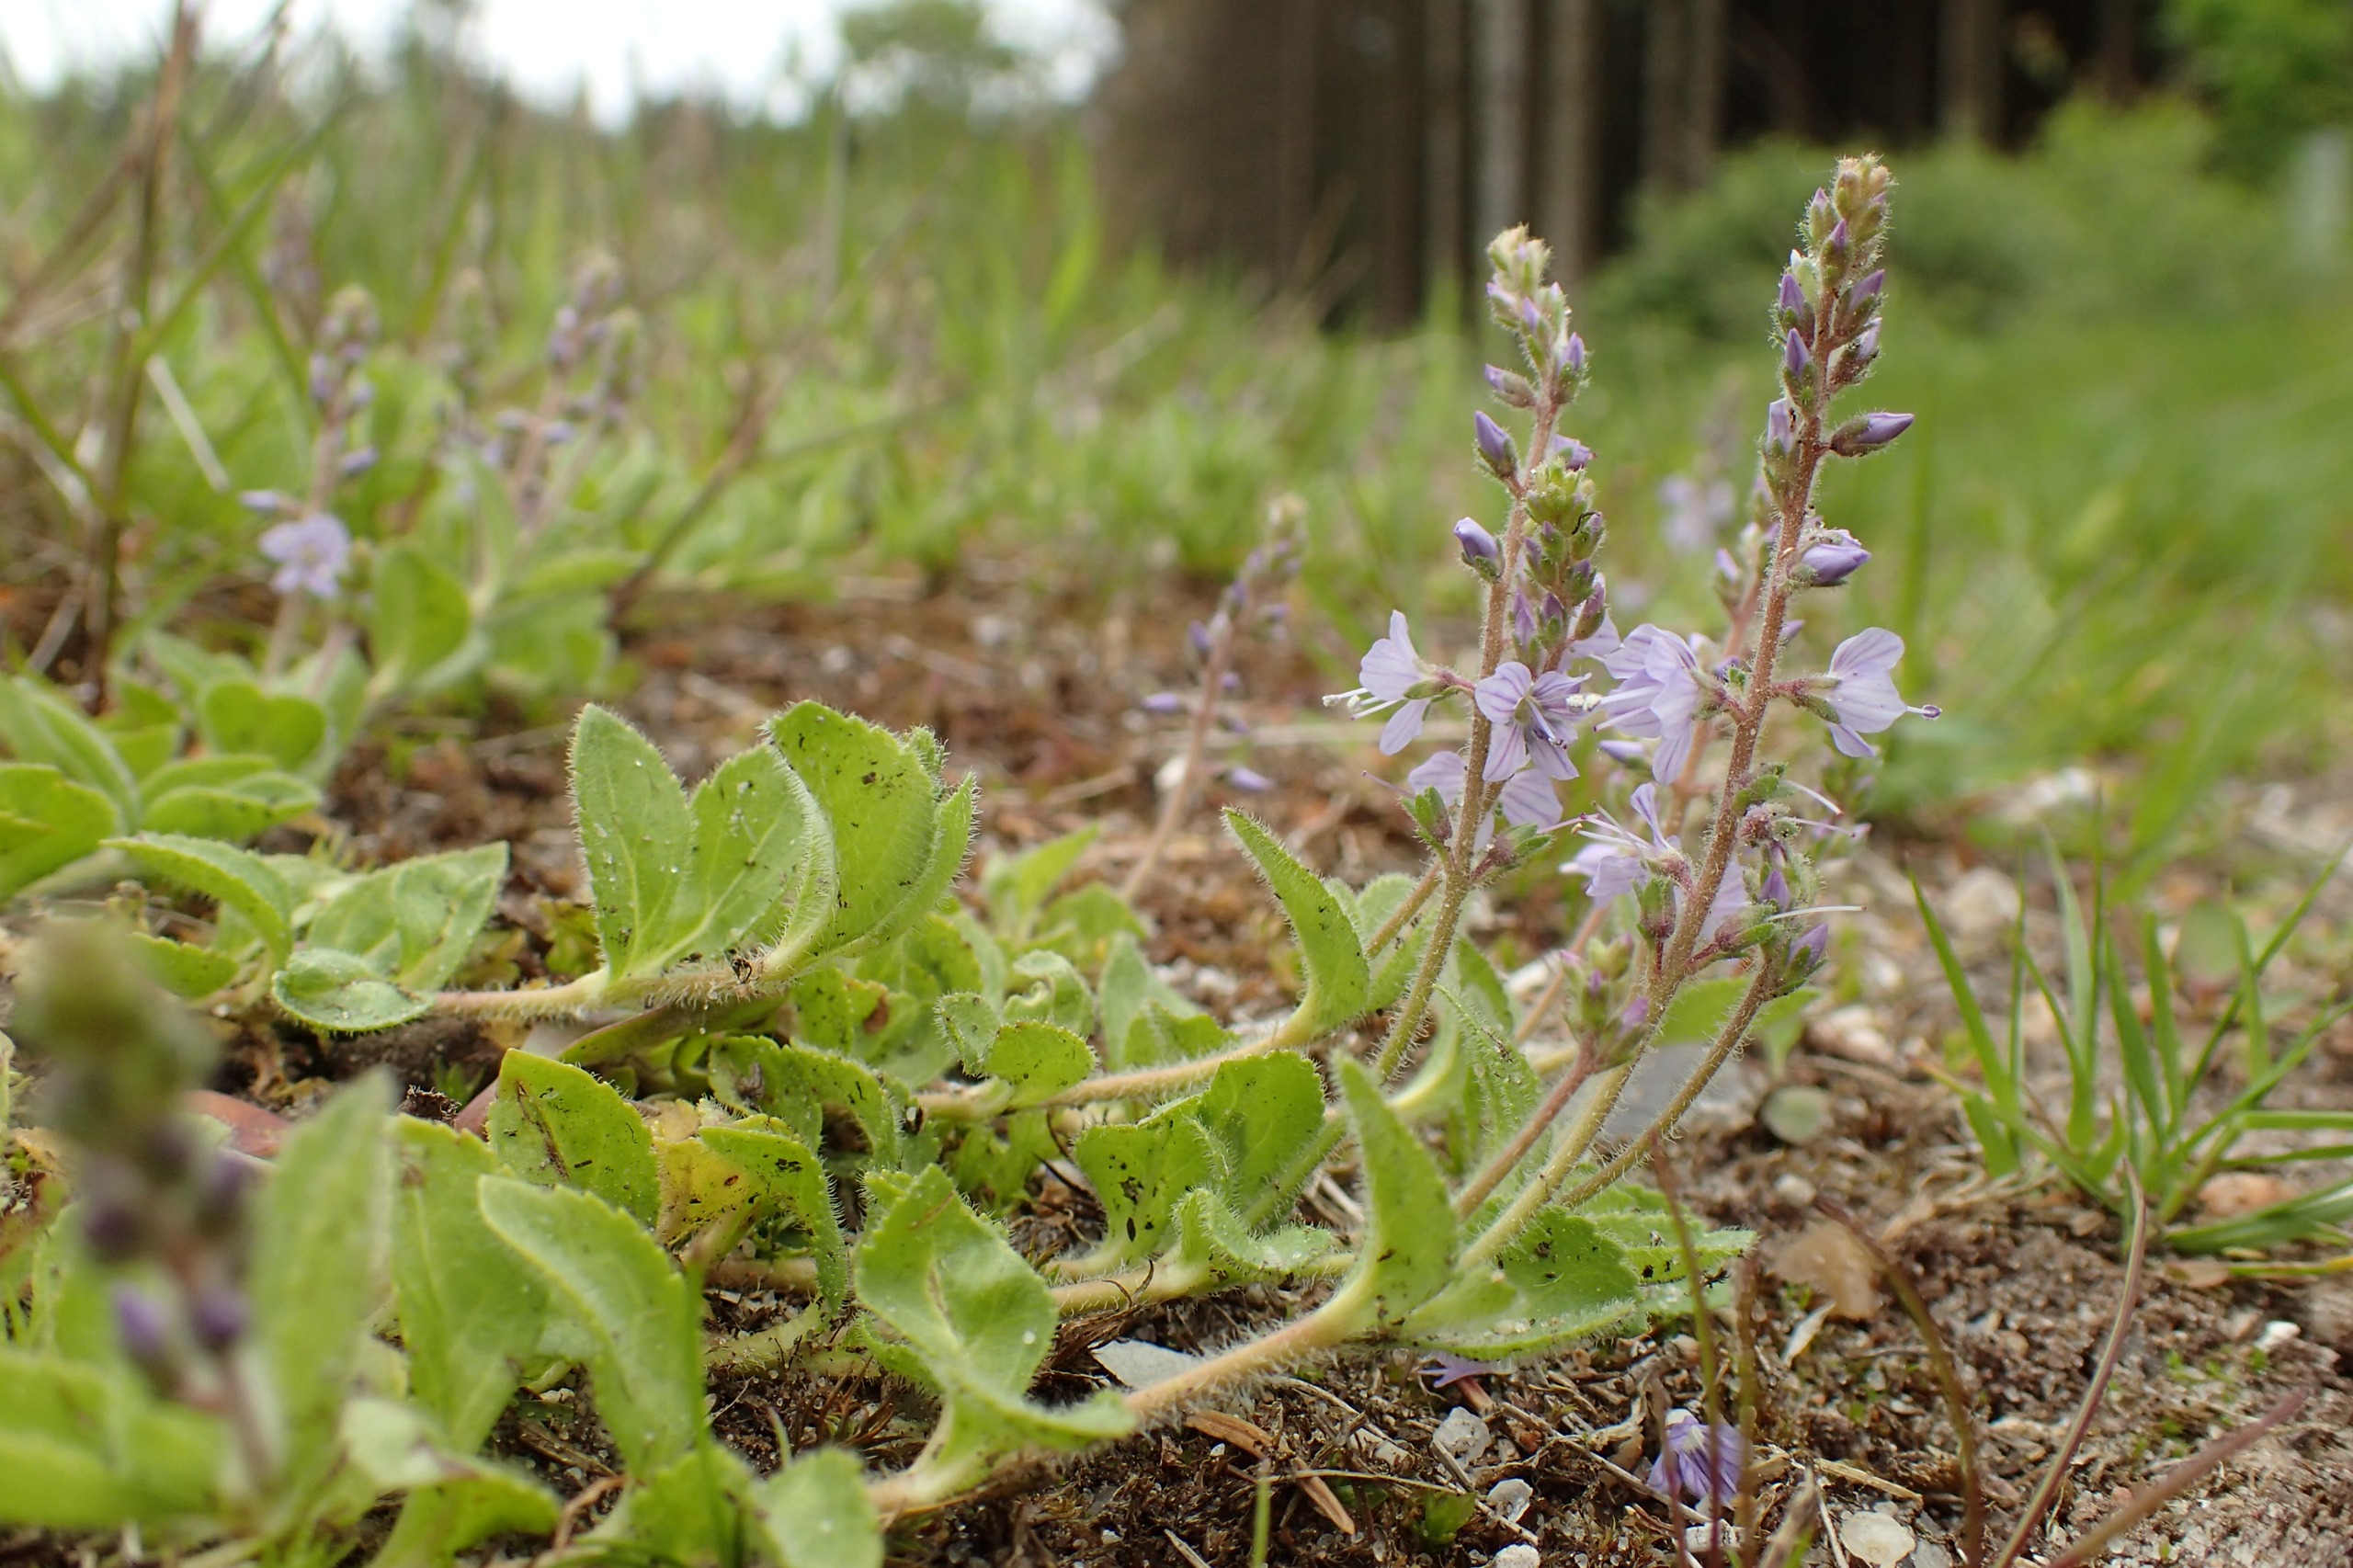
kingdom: Plantae
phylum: Tracheophyta
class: Magnoliopsida
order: Lamiales
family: Plantaginaceae
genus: Veronica
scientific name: Veronica officinalis
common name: Læge-ærenpris
